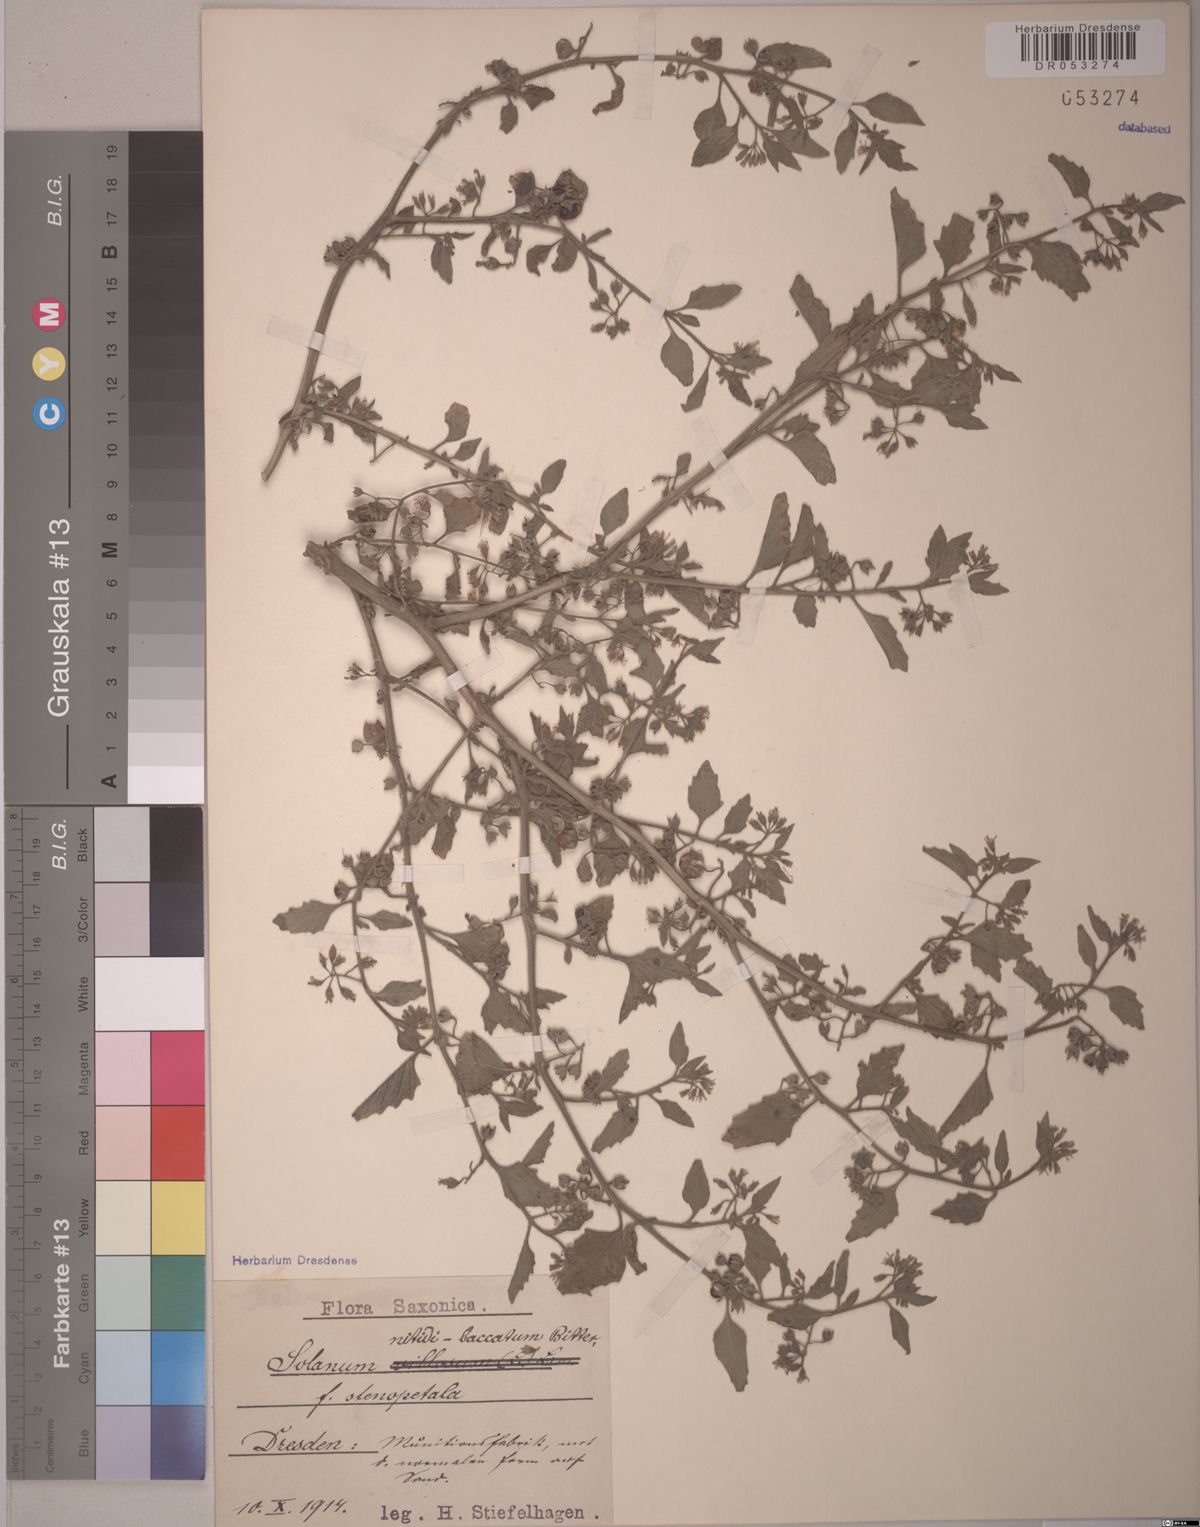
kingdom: Plantae
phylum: Tracheophyta
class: Magnoliopsida
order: Solanales
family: Solanaceae
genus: Solanum
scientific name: Solanum nitidibaccatum
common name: Hairy nightshade
